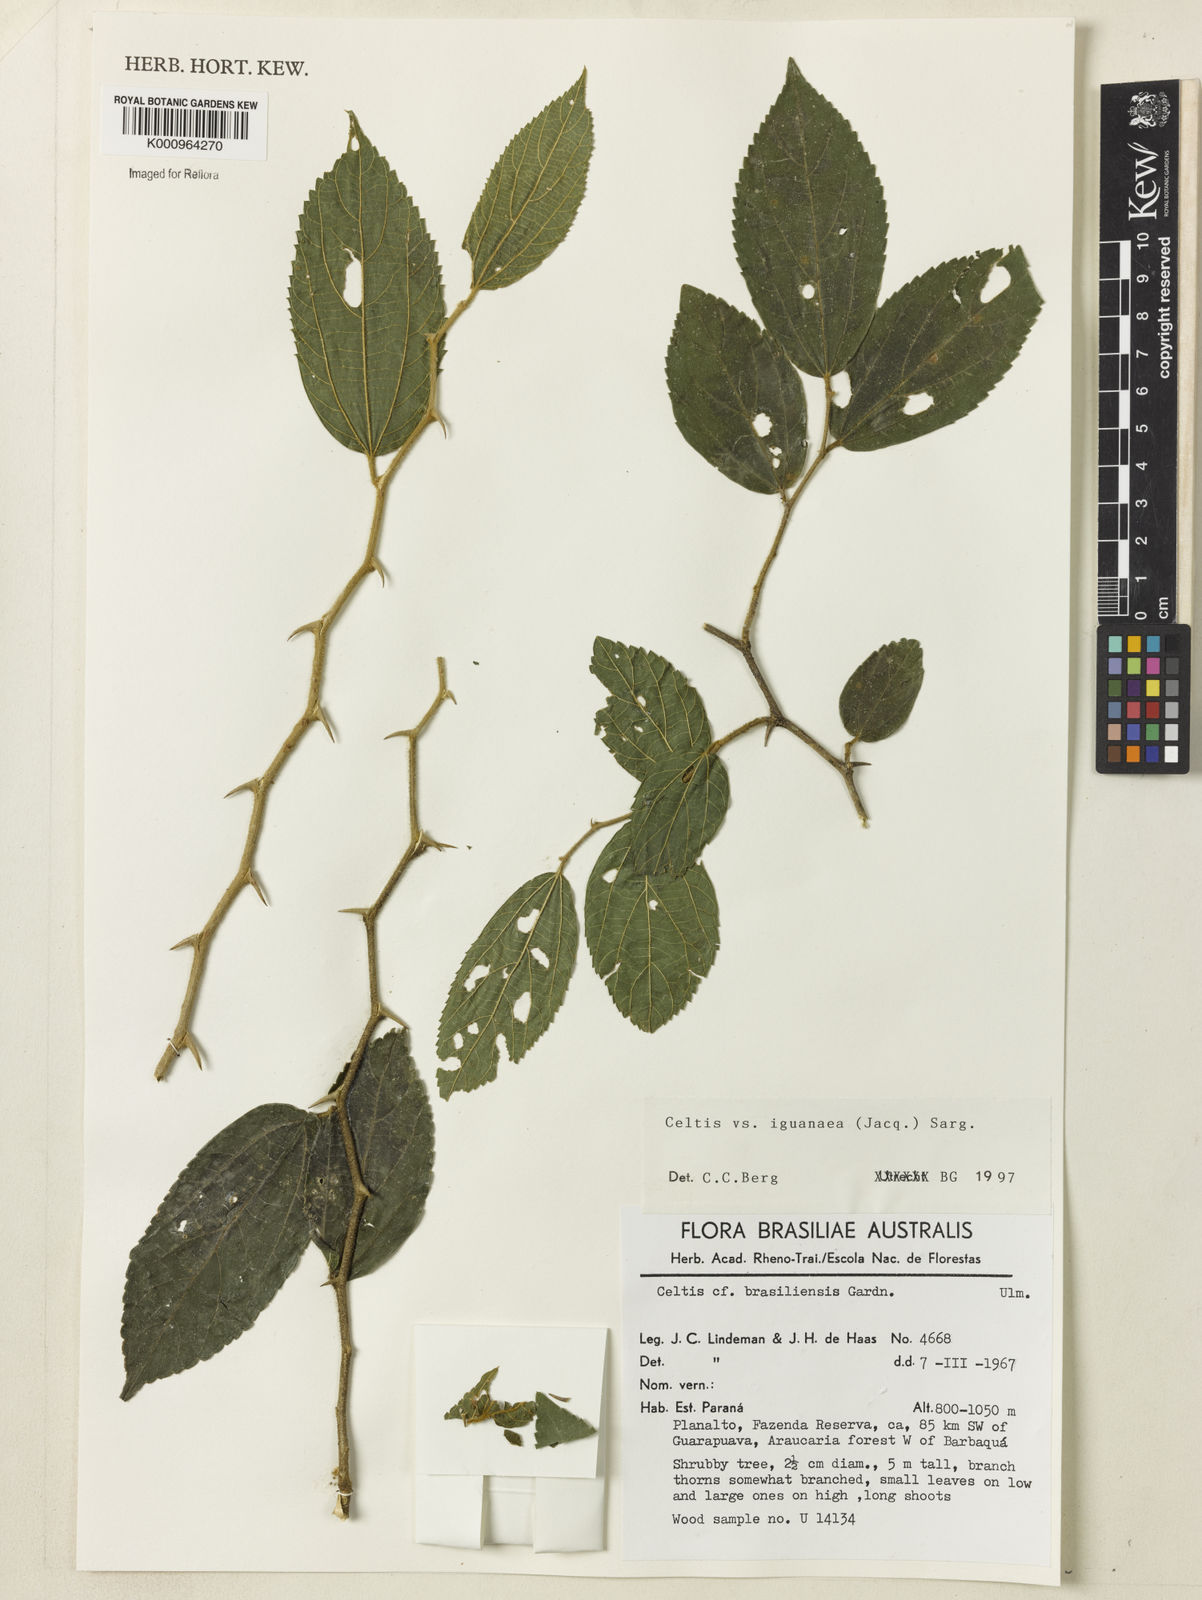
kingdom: Plantae
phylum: Tracheophyta
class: Magnoliopsida
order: Rosales
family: Cannabaceae
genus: Celtis
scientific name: Celtis iguanaea
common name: Iguana hackberry
